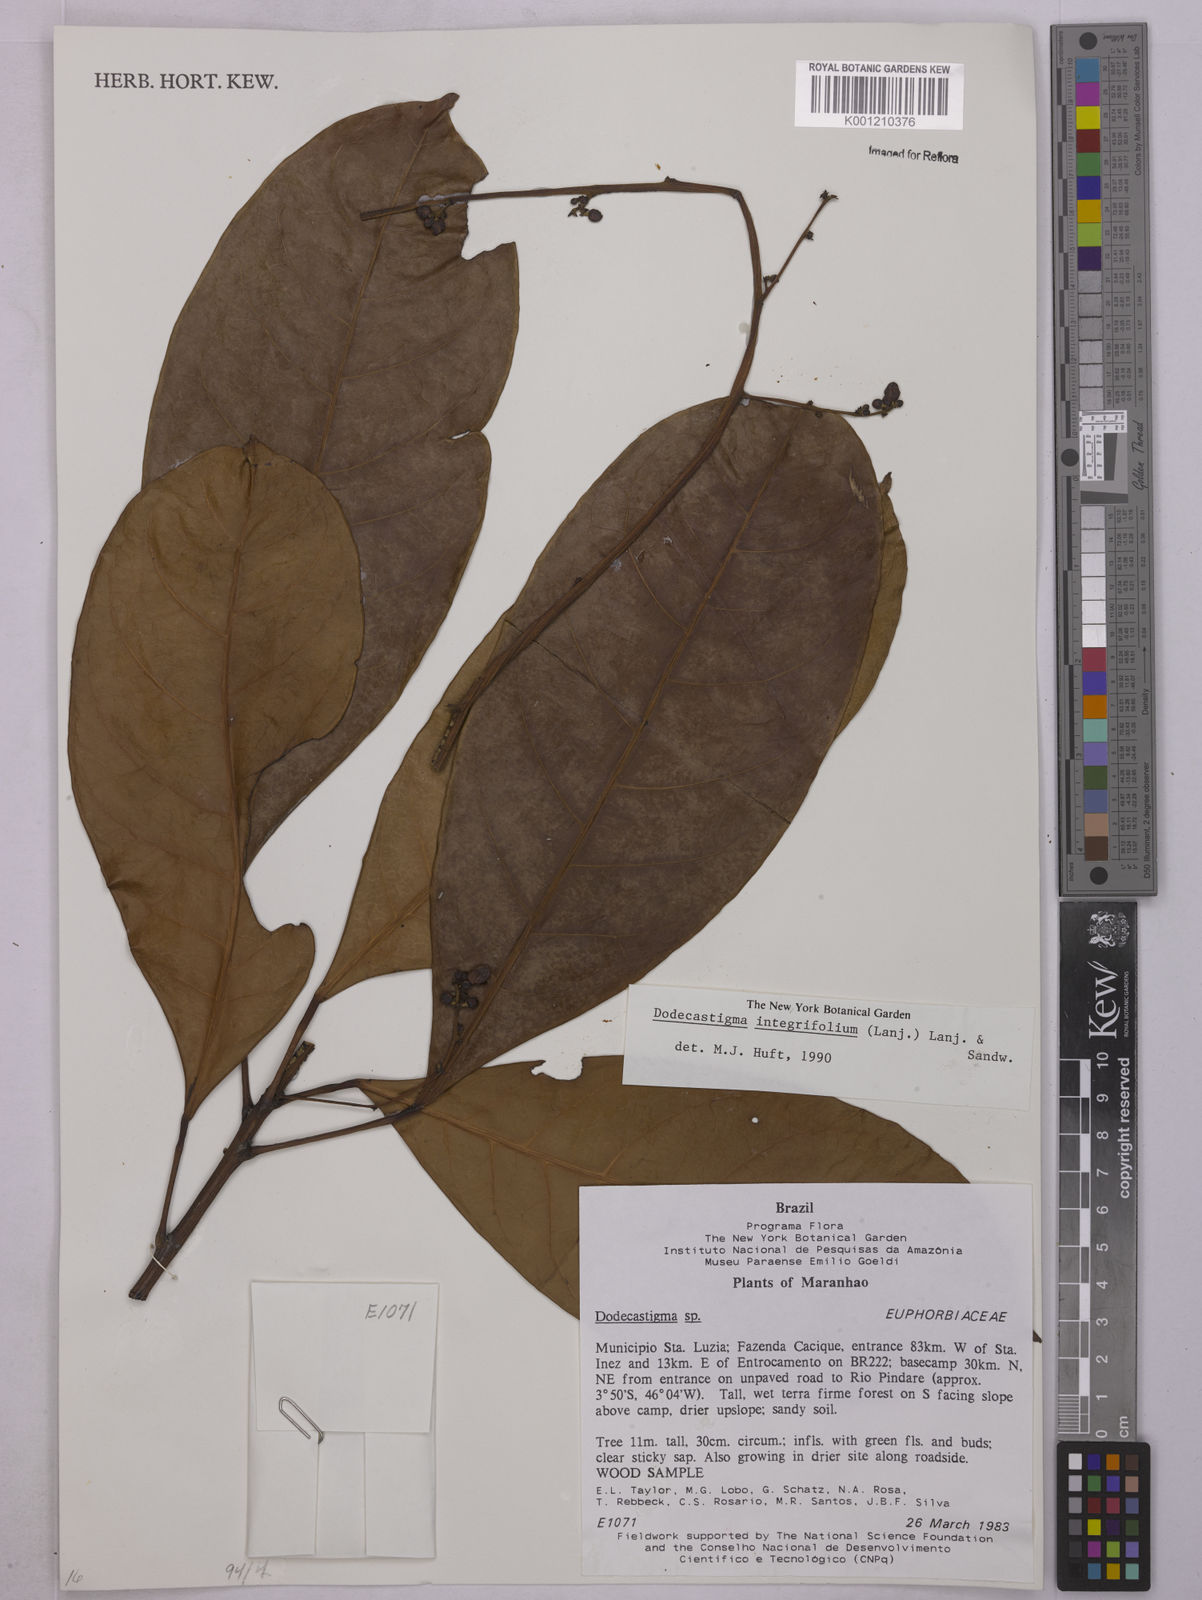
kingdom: Plantae
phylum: Tracheophyta
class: Magnoliopsida
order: Malpighiales
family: Euphorbiaceae
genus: Dodecastigma
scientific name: Dodecastigma integrifolium
